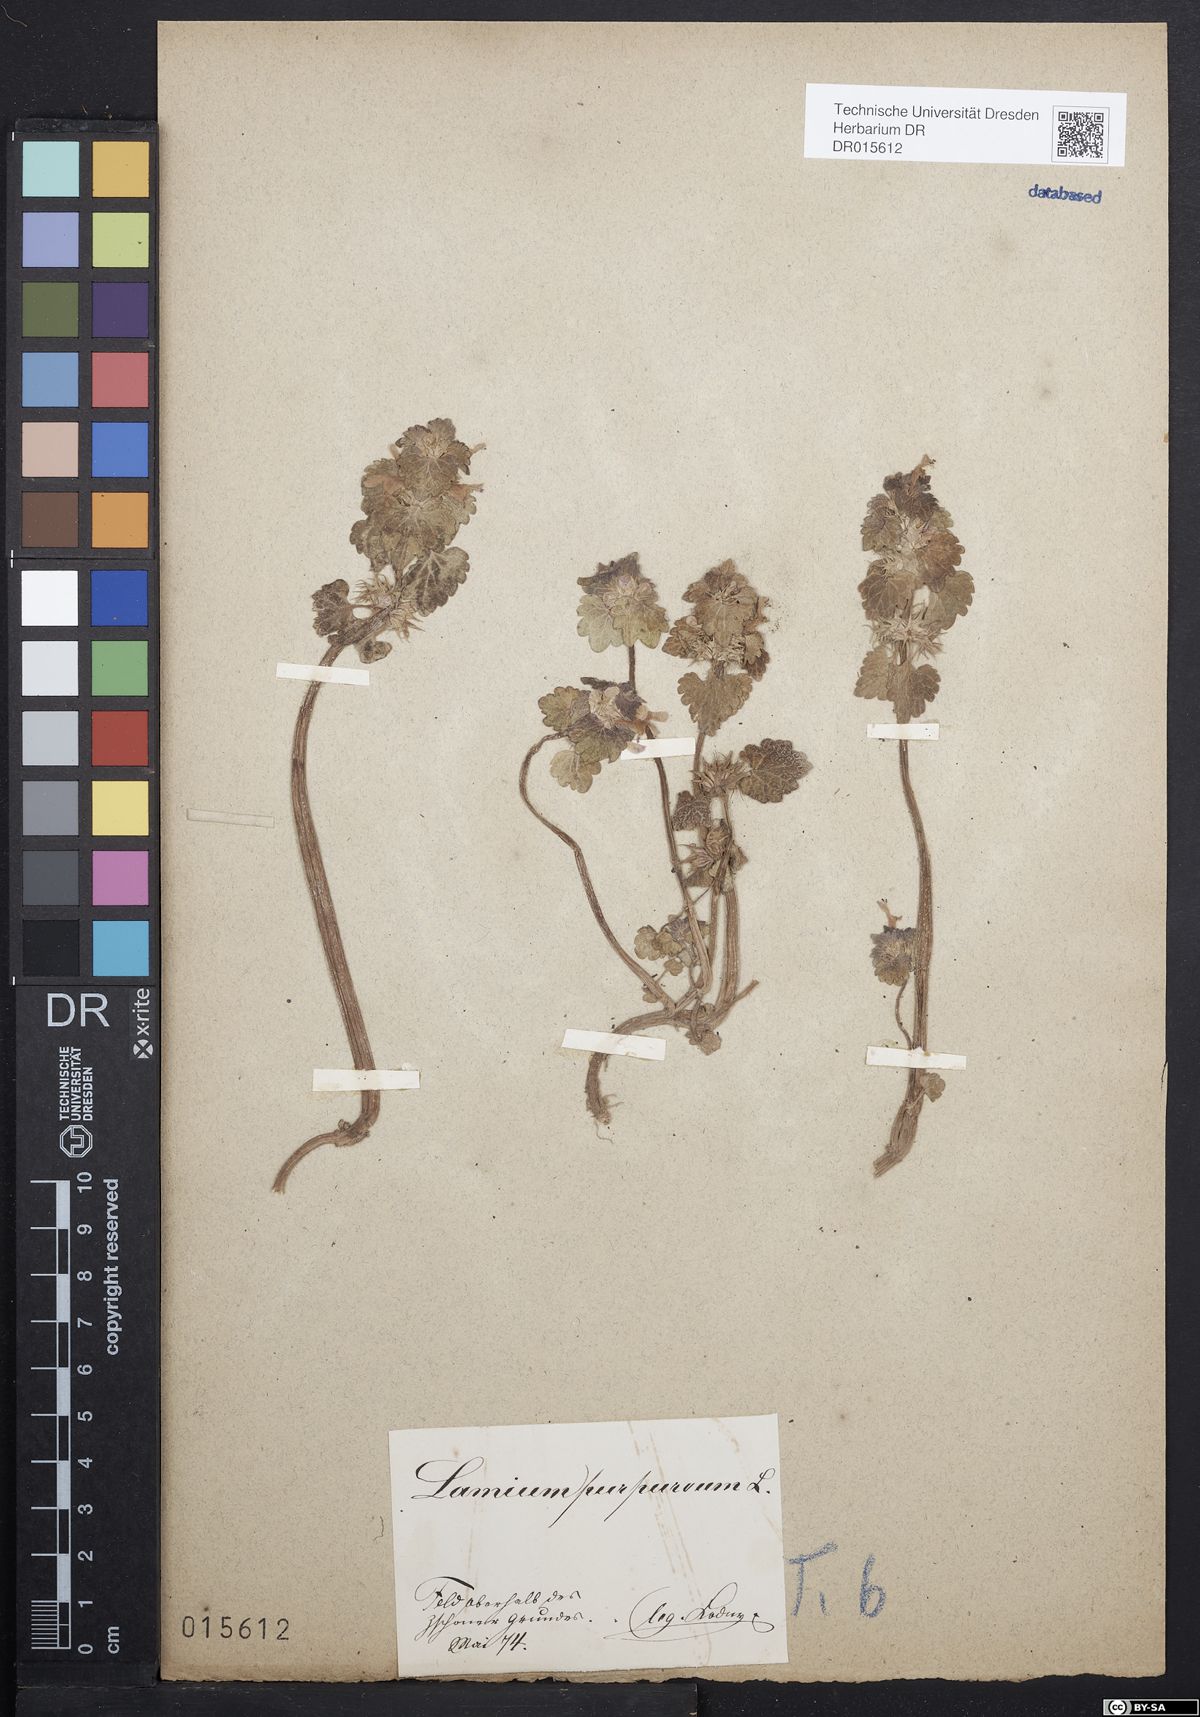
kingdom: Plantae
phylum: Tracheophyta
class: Magnoliopsida
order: Lamiales
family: Lamiaceae
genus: Lamium
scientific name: Lamium purpureum
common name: Red dead-nettle
